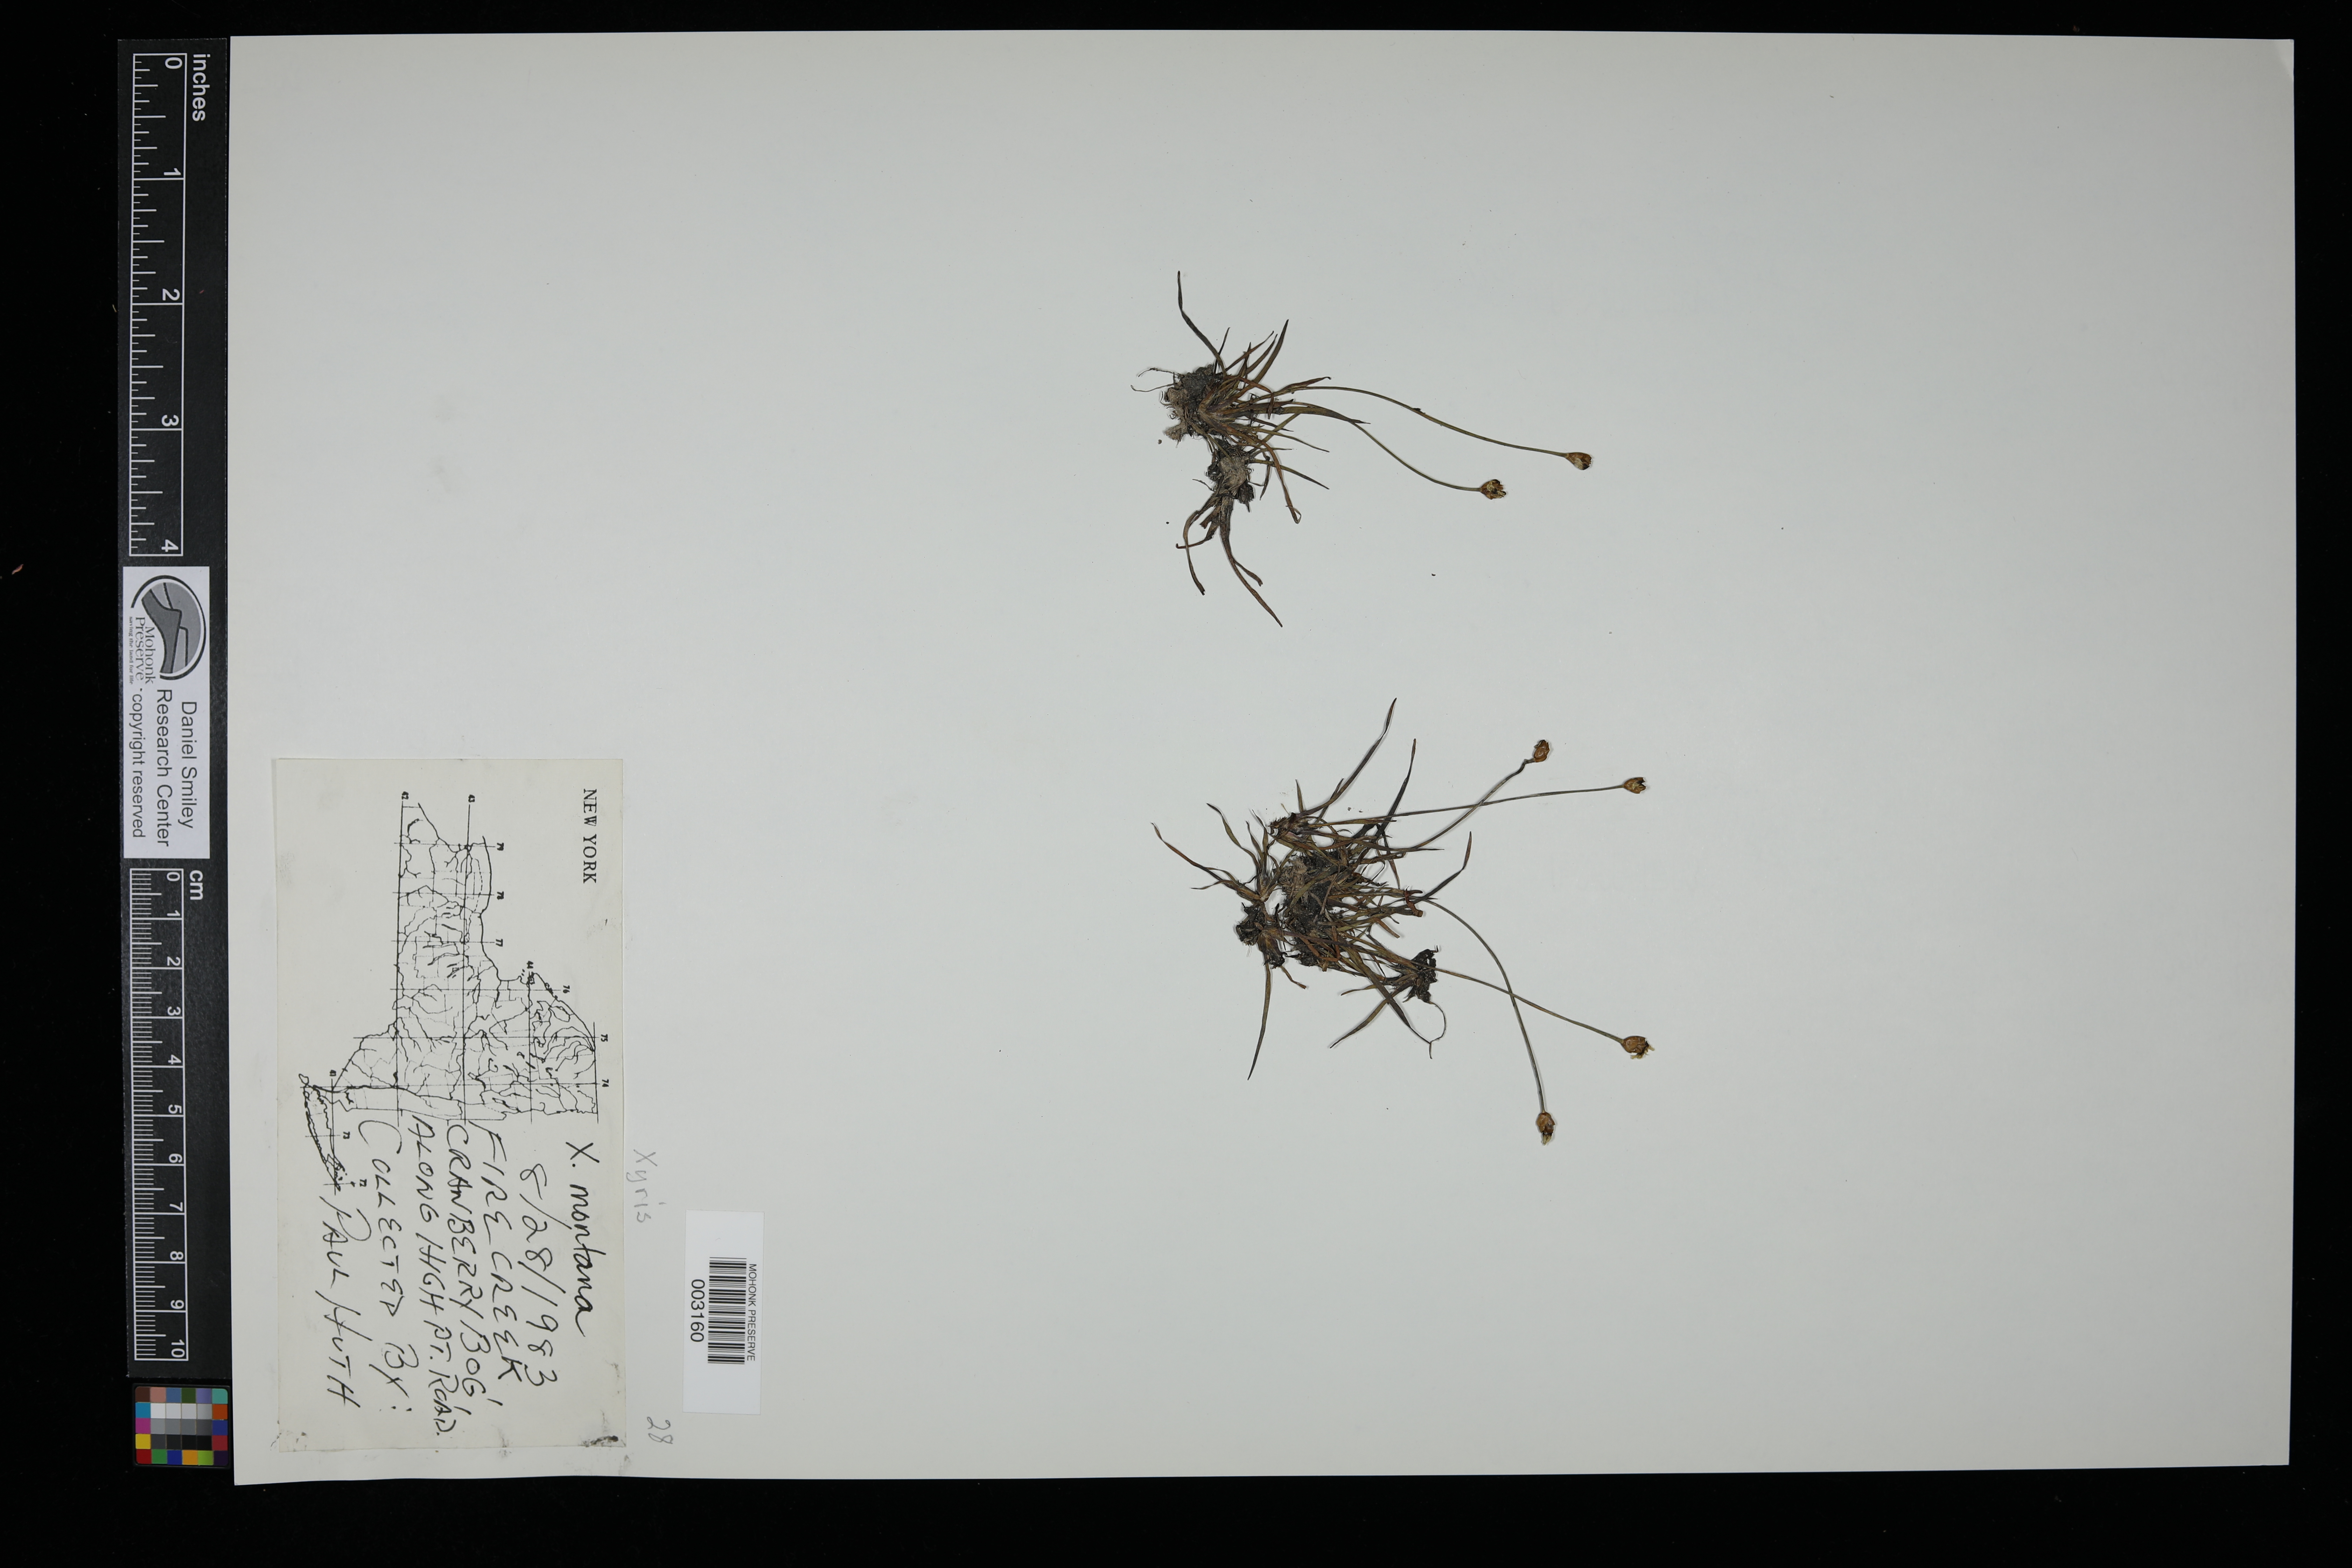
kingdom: Plantae
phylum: Tracheophyta
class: Liliopsida
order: Poales
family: Xyridaceae
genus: Xyris
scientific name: Xyris montana
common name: Northern yellow-eyed-grass
